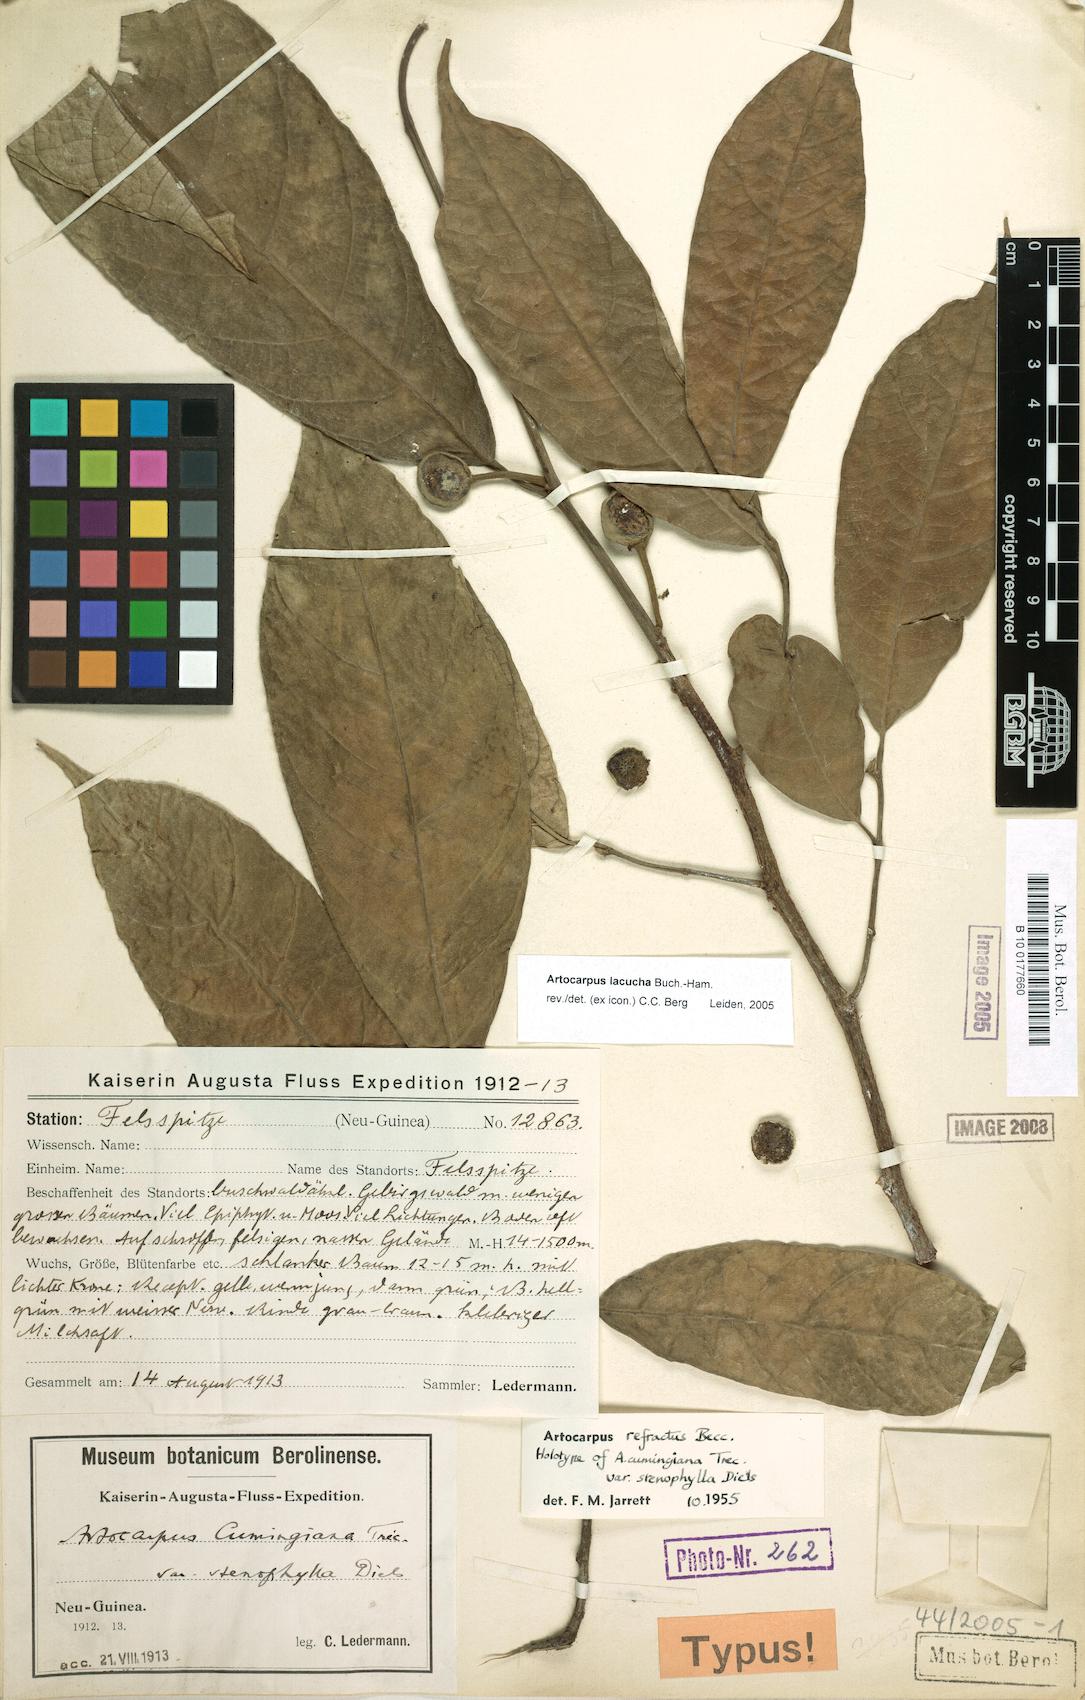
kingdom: Plantae
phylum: Tracheophyta
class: Magnoliopsida
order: Rosales
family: Moraceae
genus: Artocarpus
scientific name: Artocarpus lacucha
